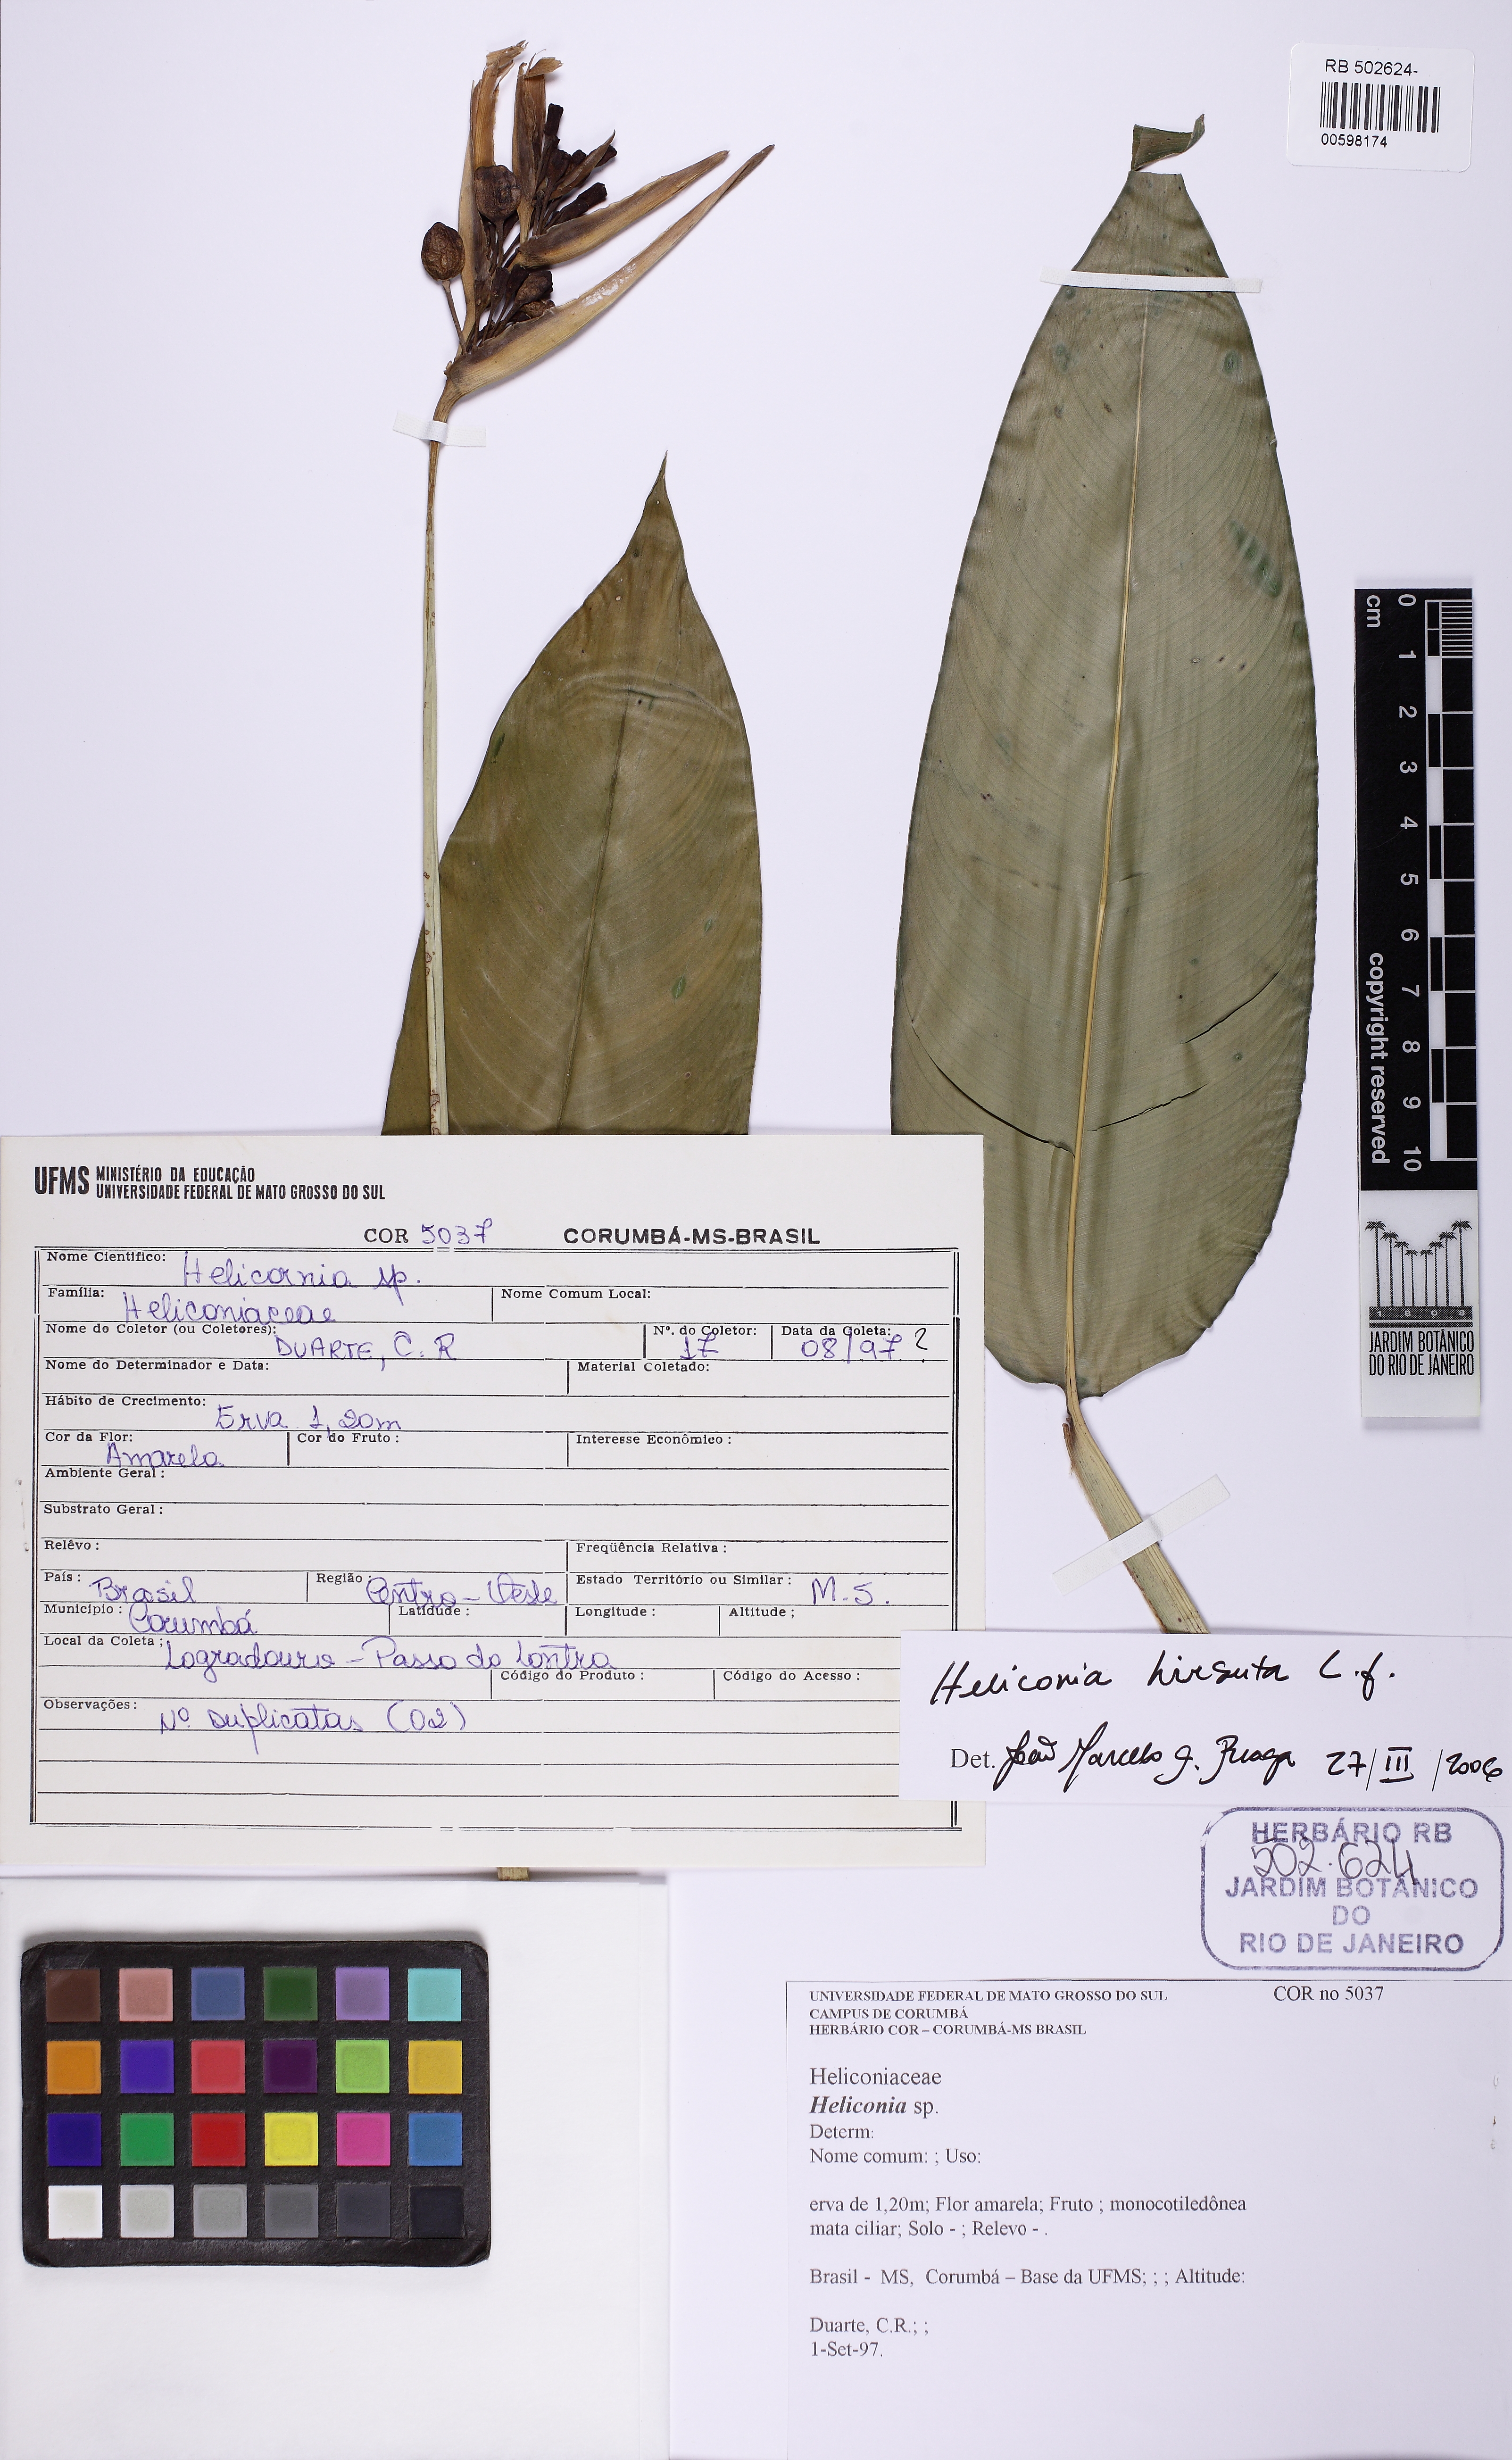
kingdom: Plantae
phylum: Tracheophyta
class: Liliopsida
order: Zingiberales
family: Heliconiaceae
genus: Heliconia
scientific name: Heliconia hirsuta
